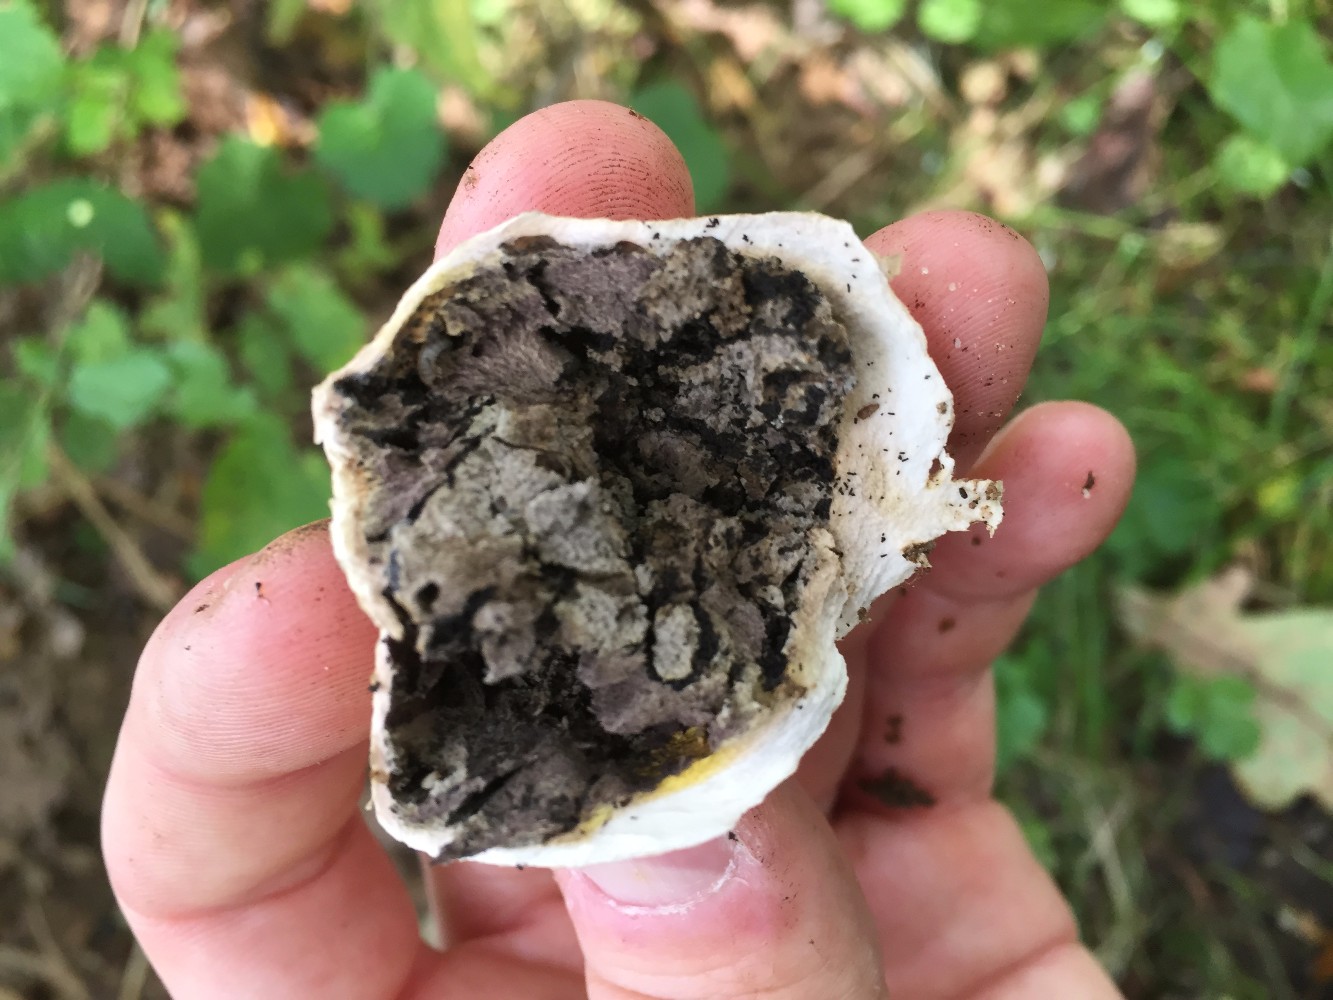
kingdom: Fungi
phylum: Basidiomycota
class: Agaricomycetes
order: Boletales
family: Sclerodermataceae
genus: Scleroderma
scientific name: Scleroderma
